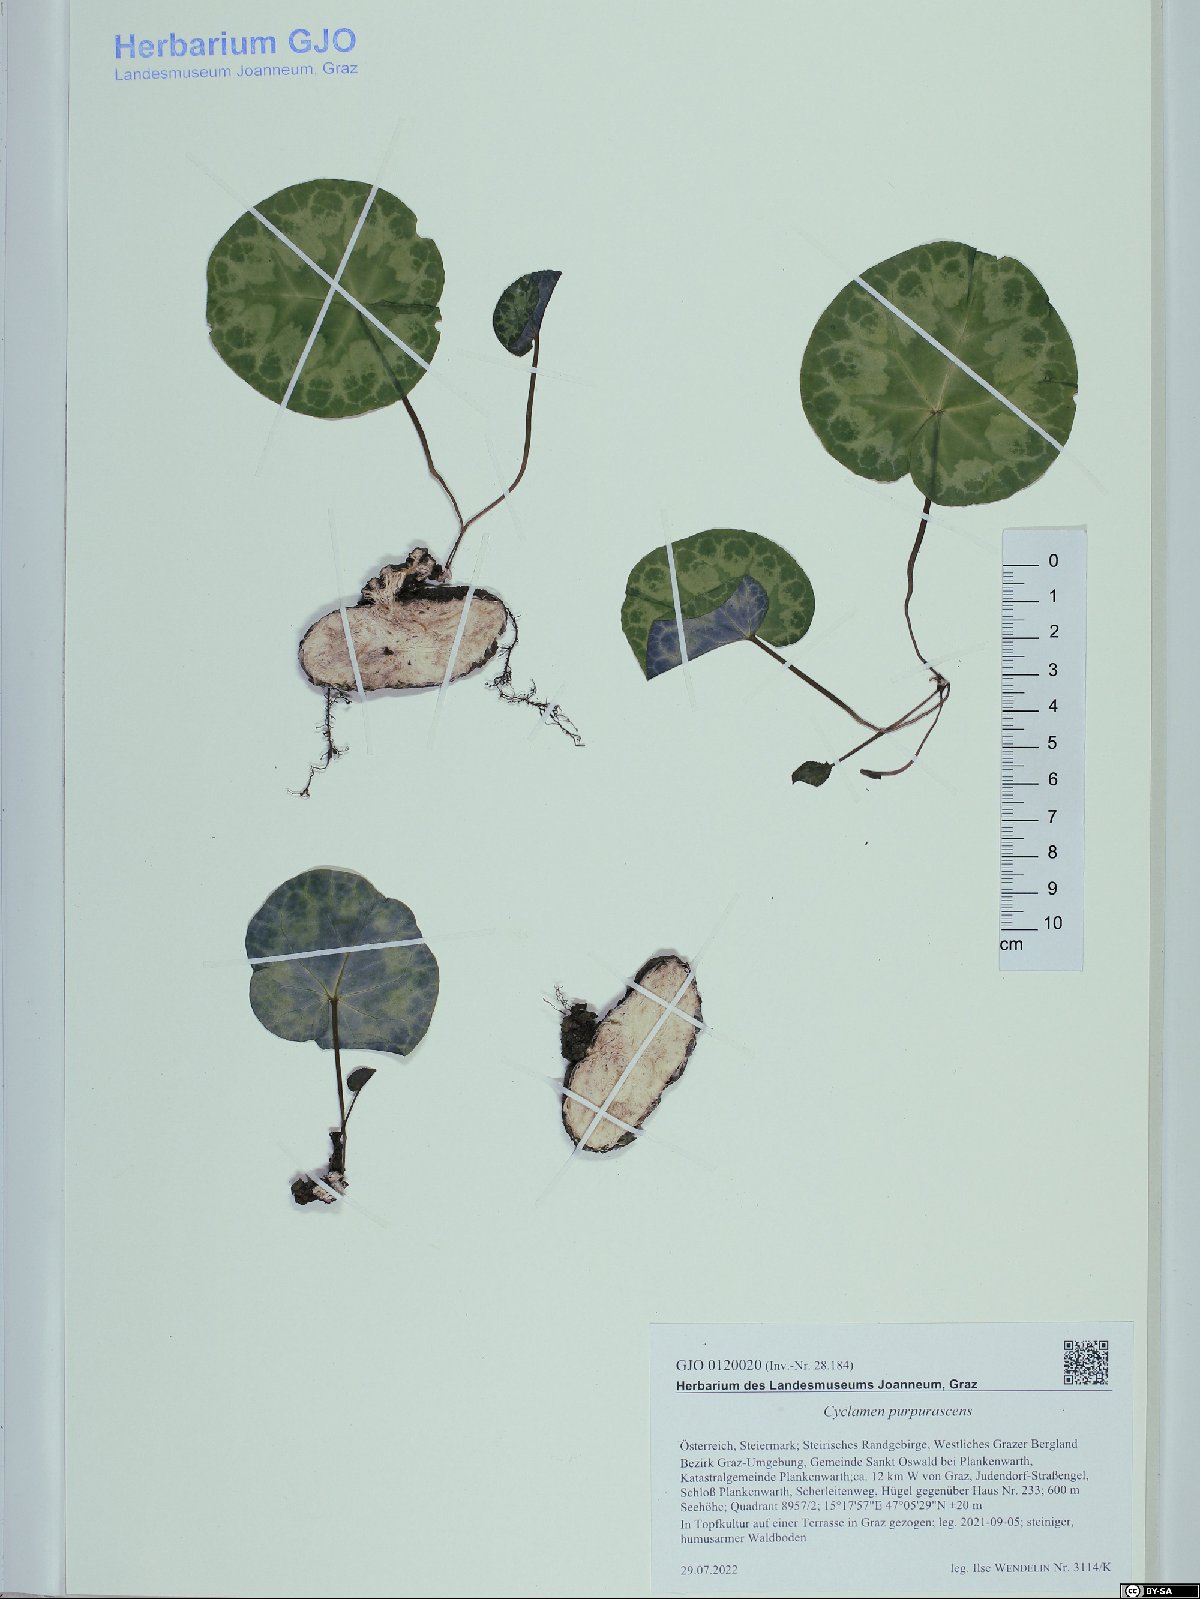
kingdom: Plantae
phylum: Tracheophyta
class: Magnoliopsida
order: Ericales
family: Primulaceae
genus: Cyclamen
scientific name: Cyclamen purpurascens
